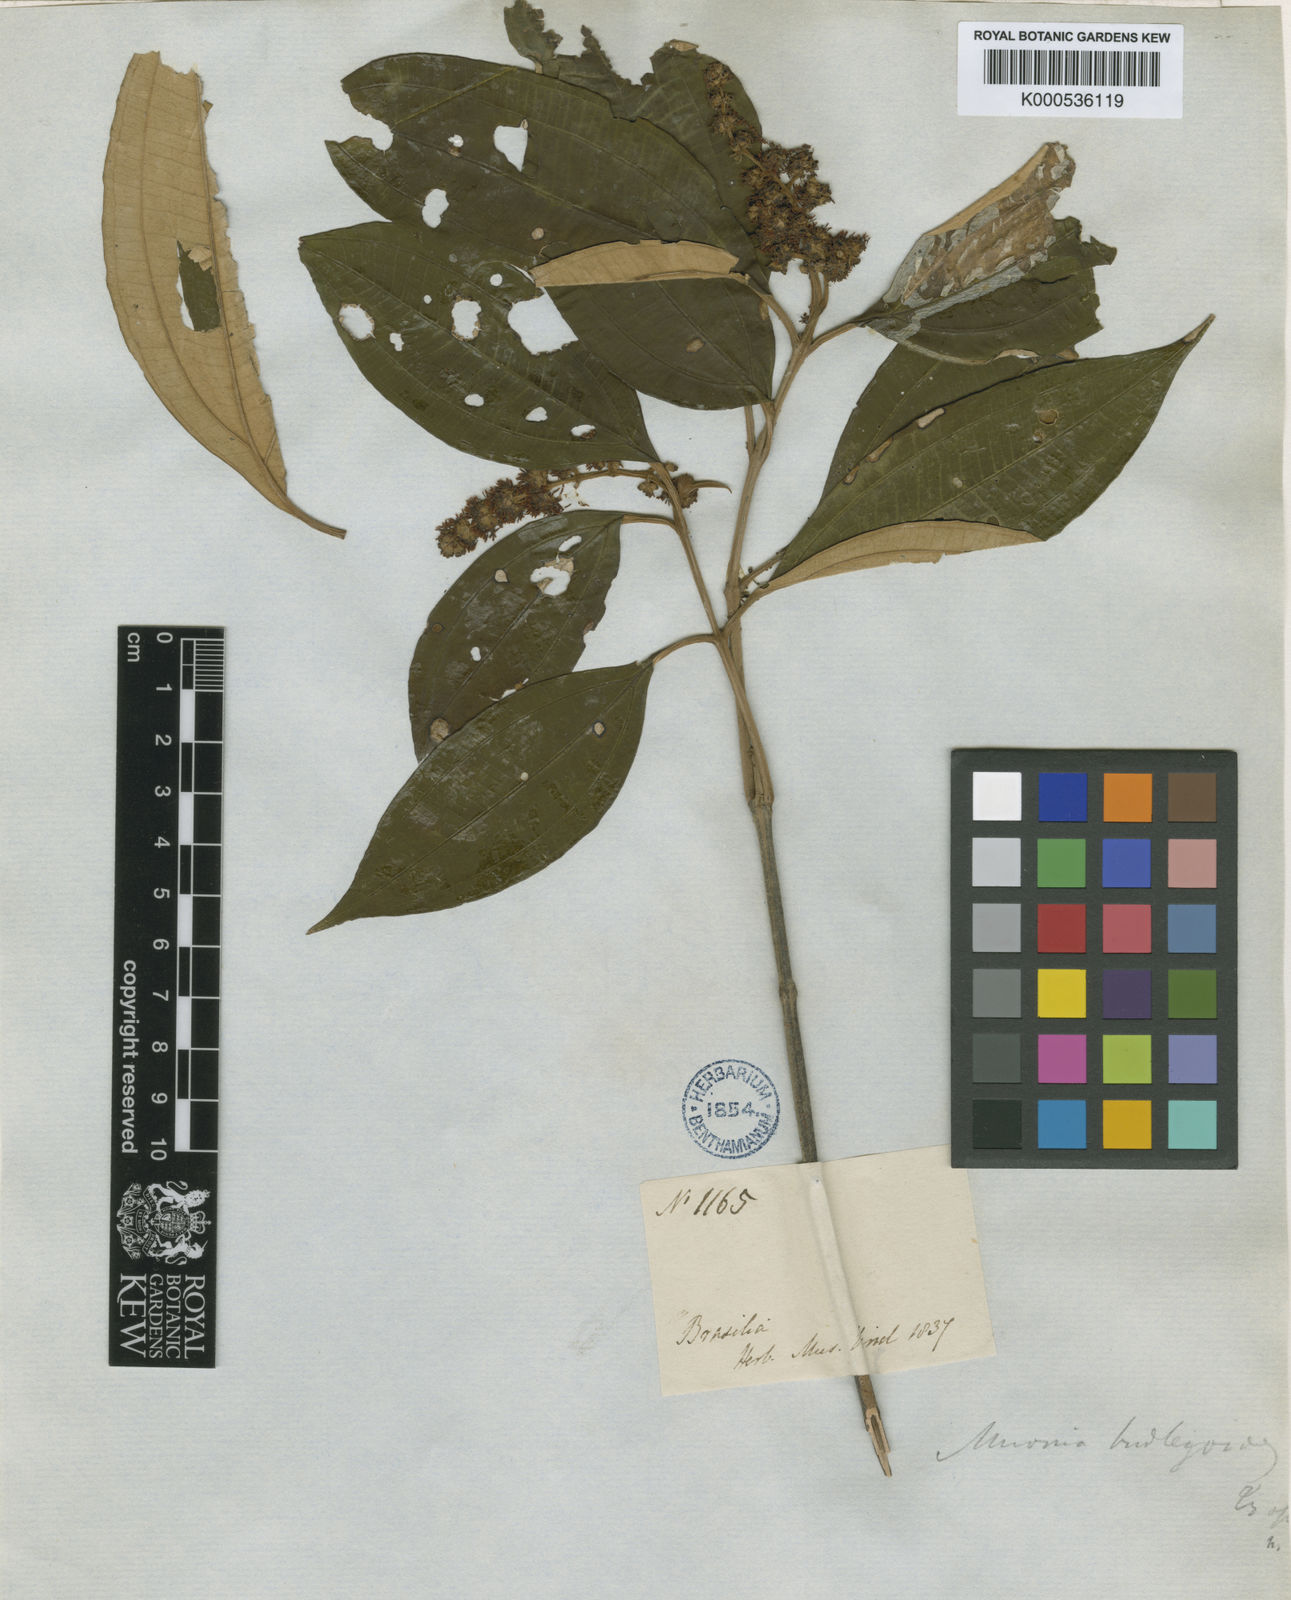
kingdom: Plantae
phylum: Tracheophyta
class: Magnoliopsida
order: Myrtales
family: Melastomataceae
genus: Miconia
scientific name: Miconia buddlejoides
